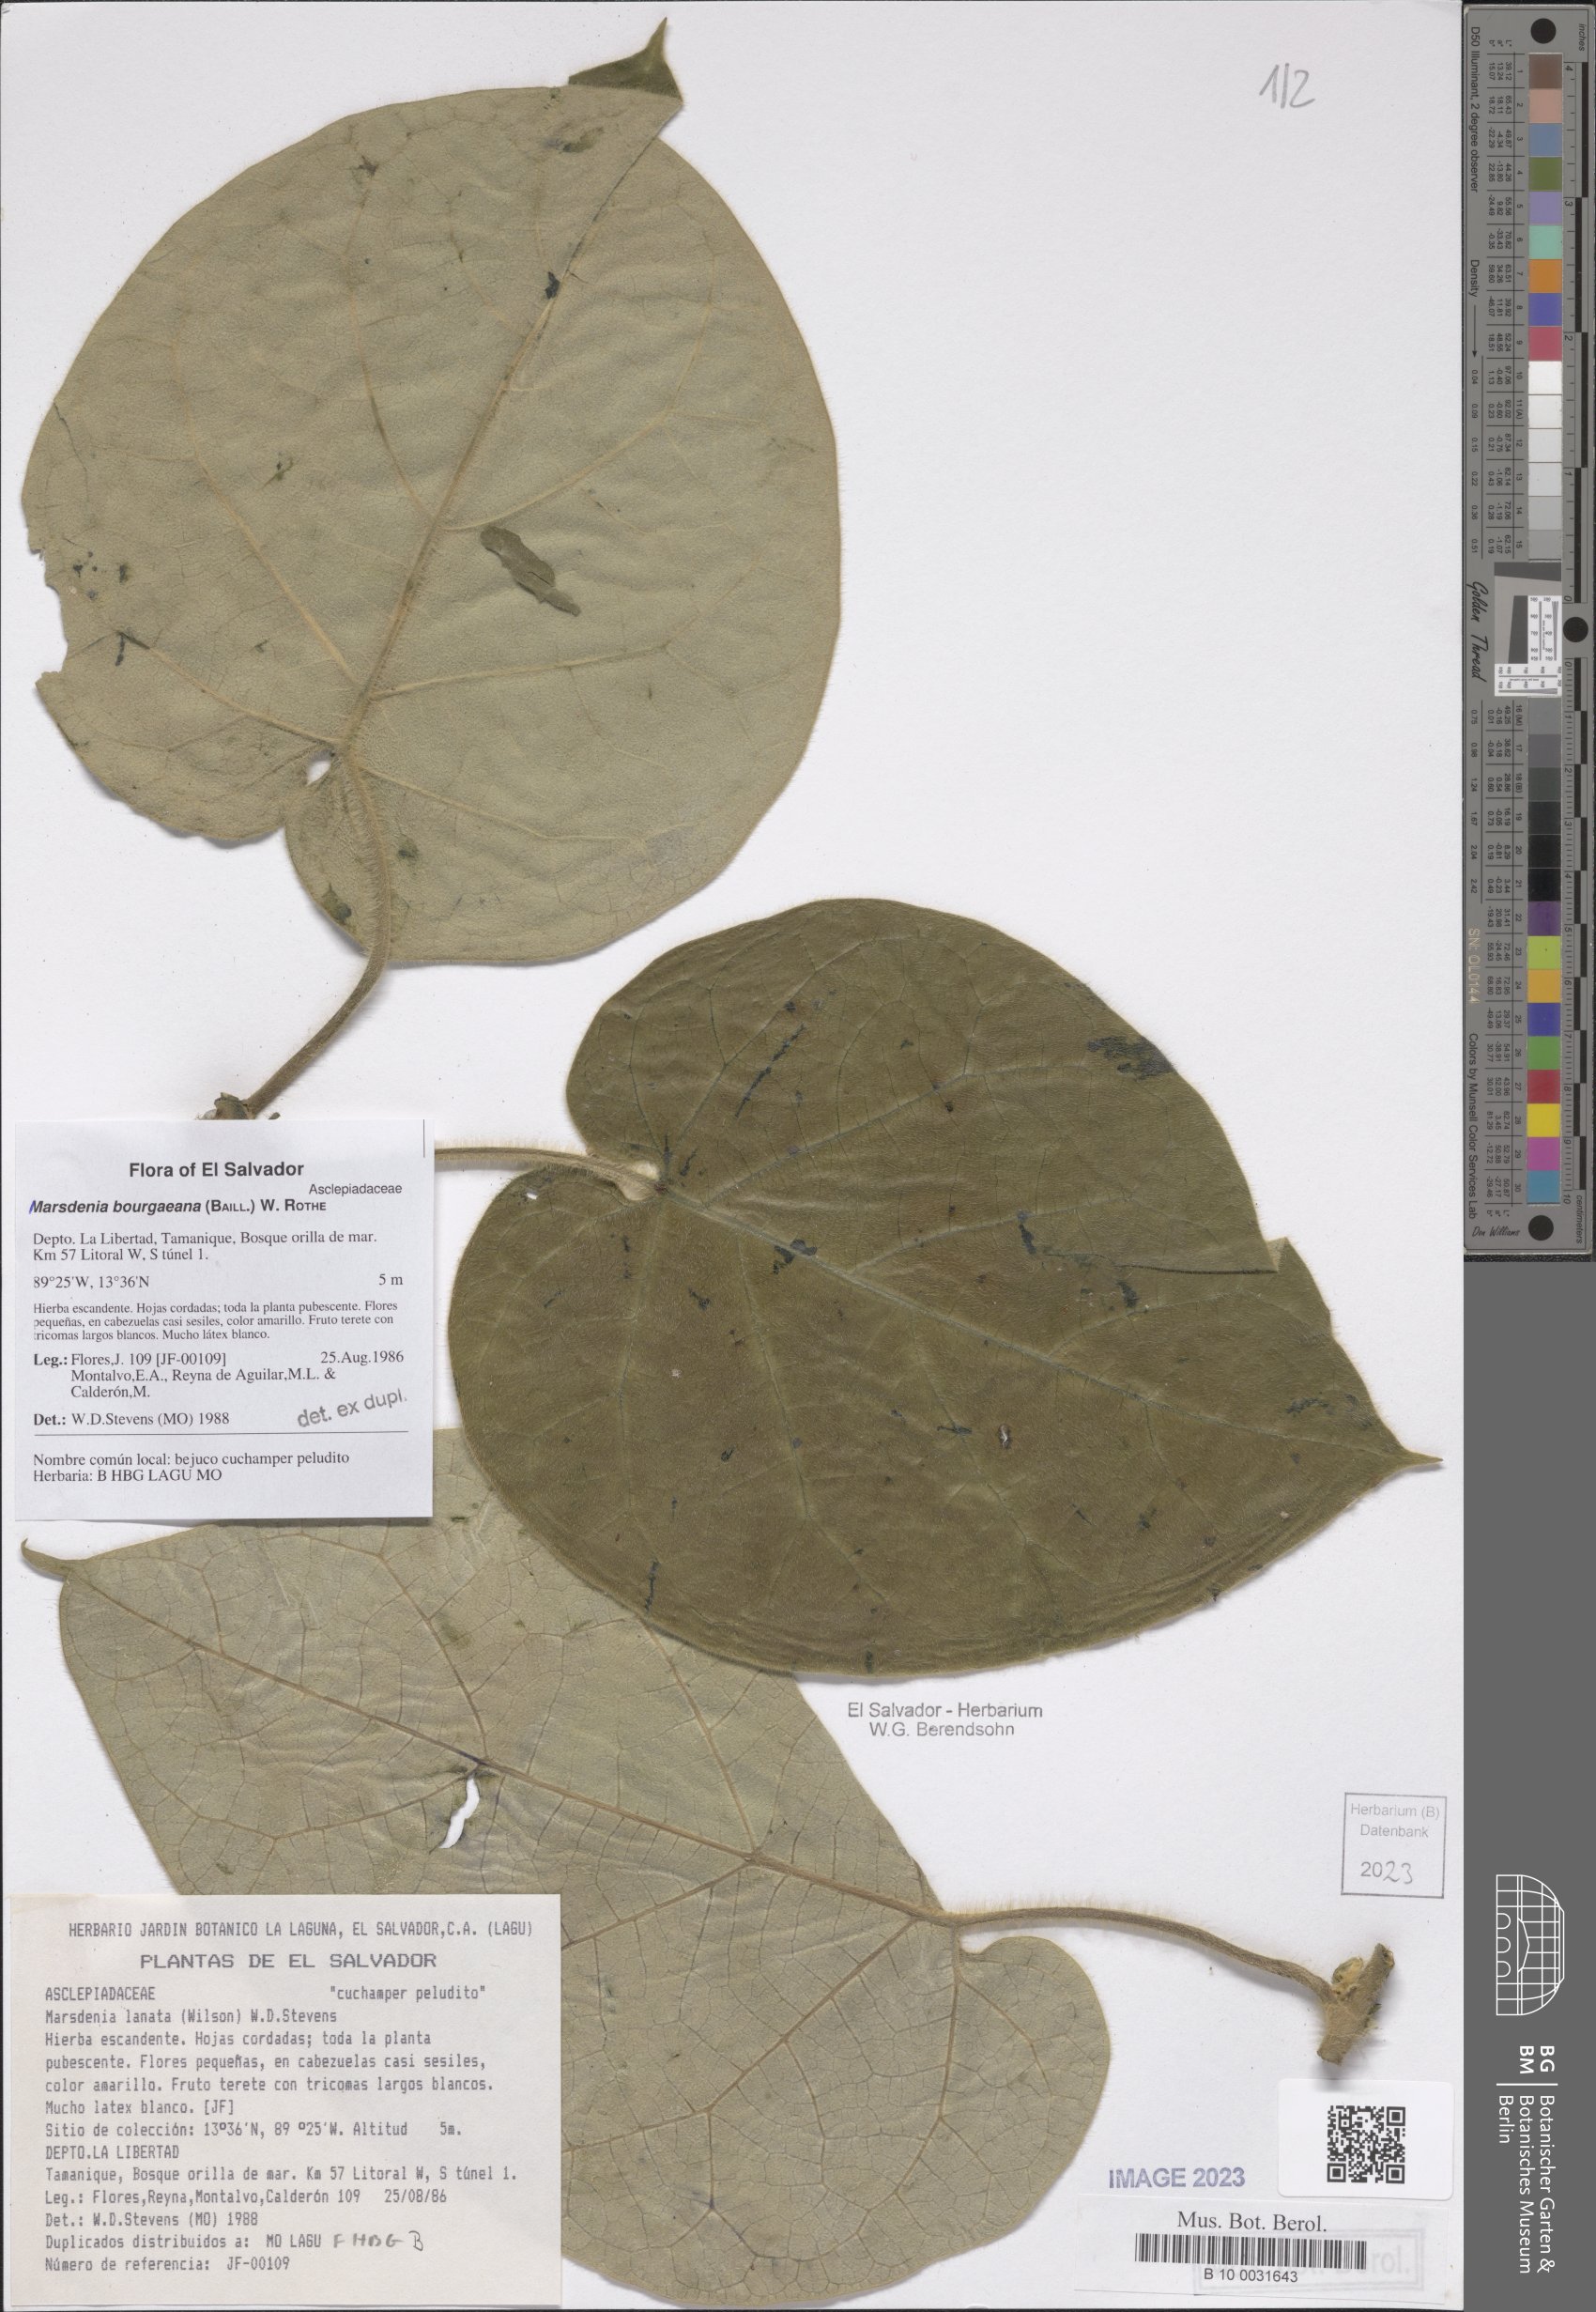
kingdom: Plantae
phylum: Tracheophyta
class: Magnoliopsida
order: Gentianales
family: Apocynaceae
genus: Ruehssia
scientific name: Ruehssia bourgaeana
